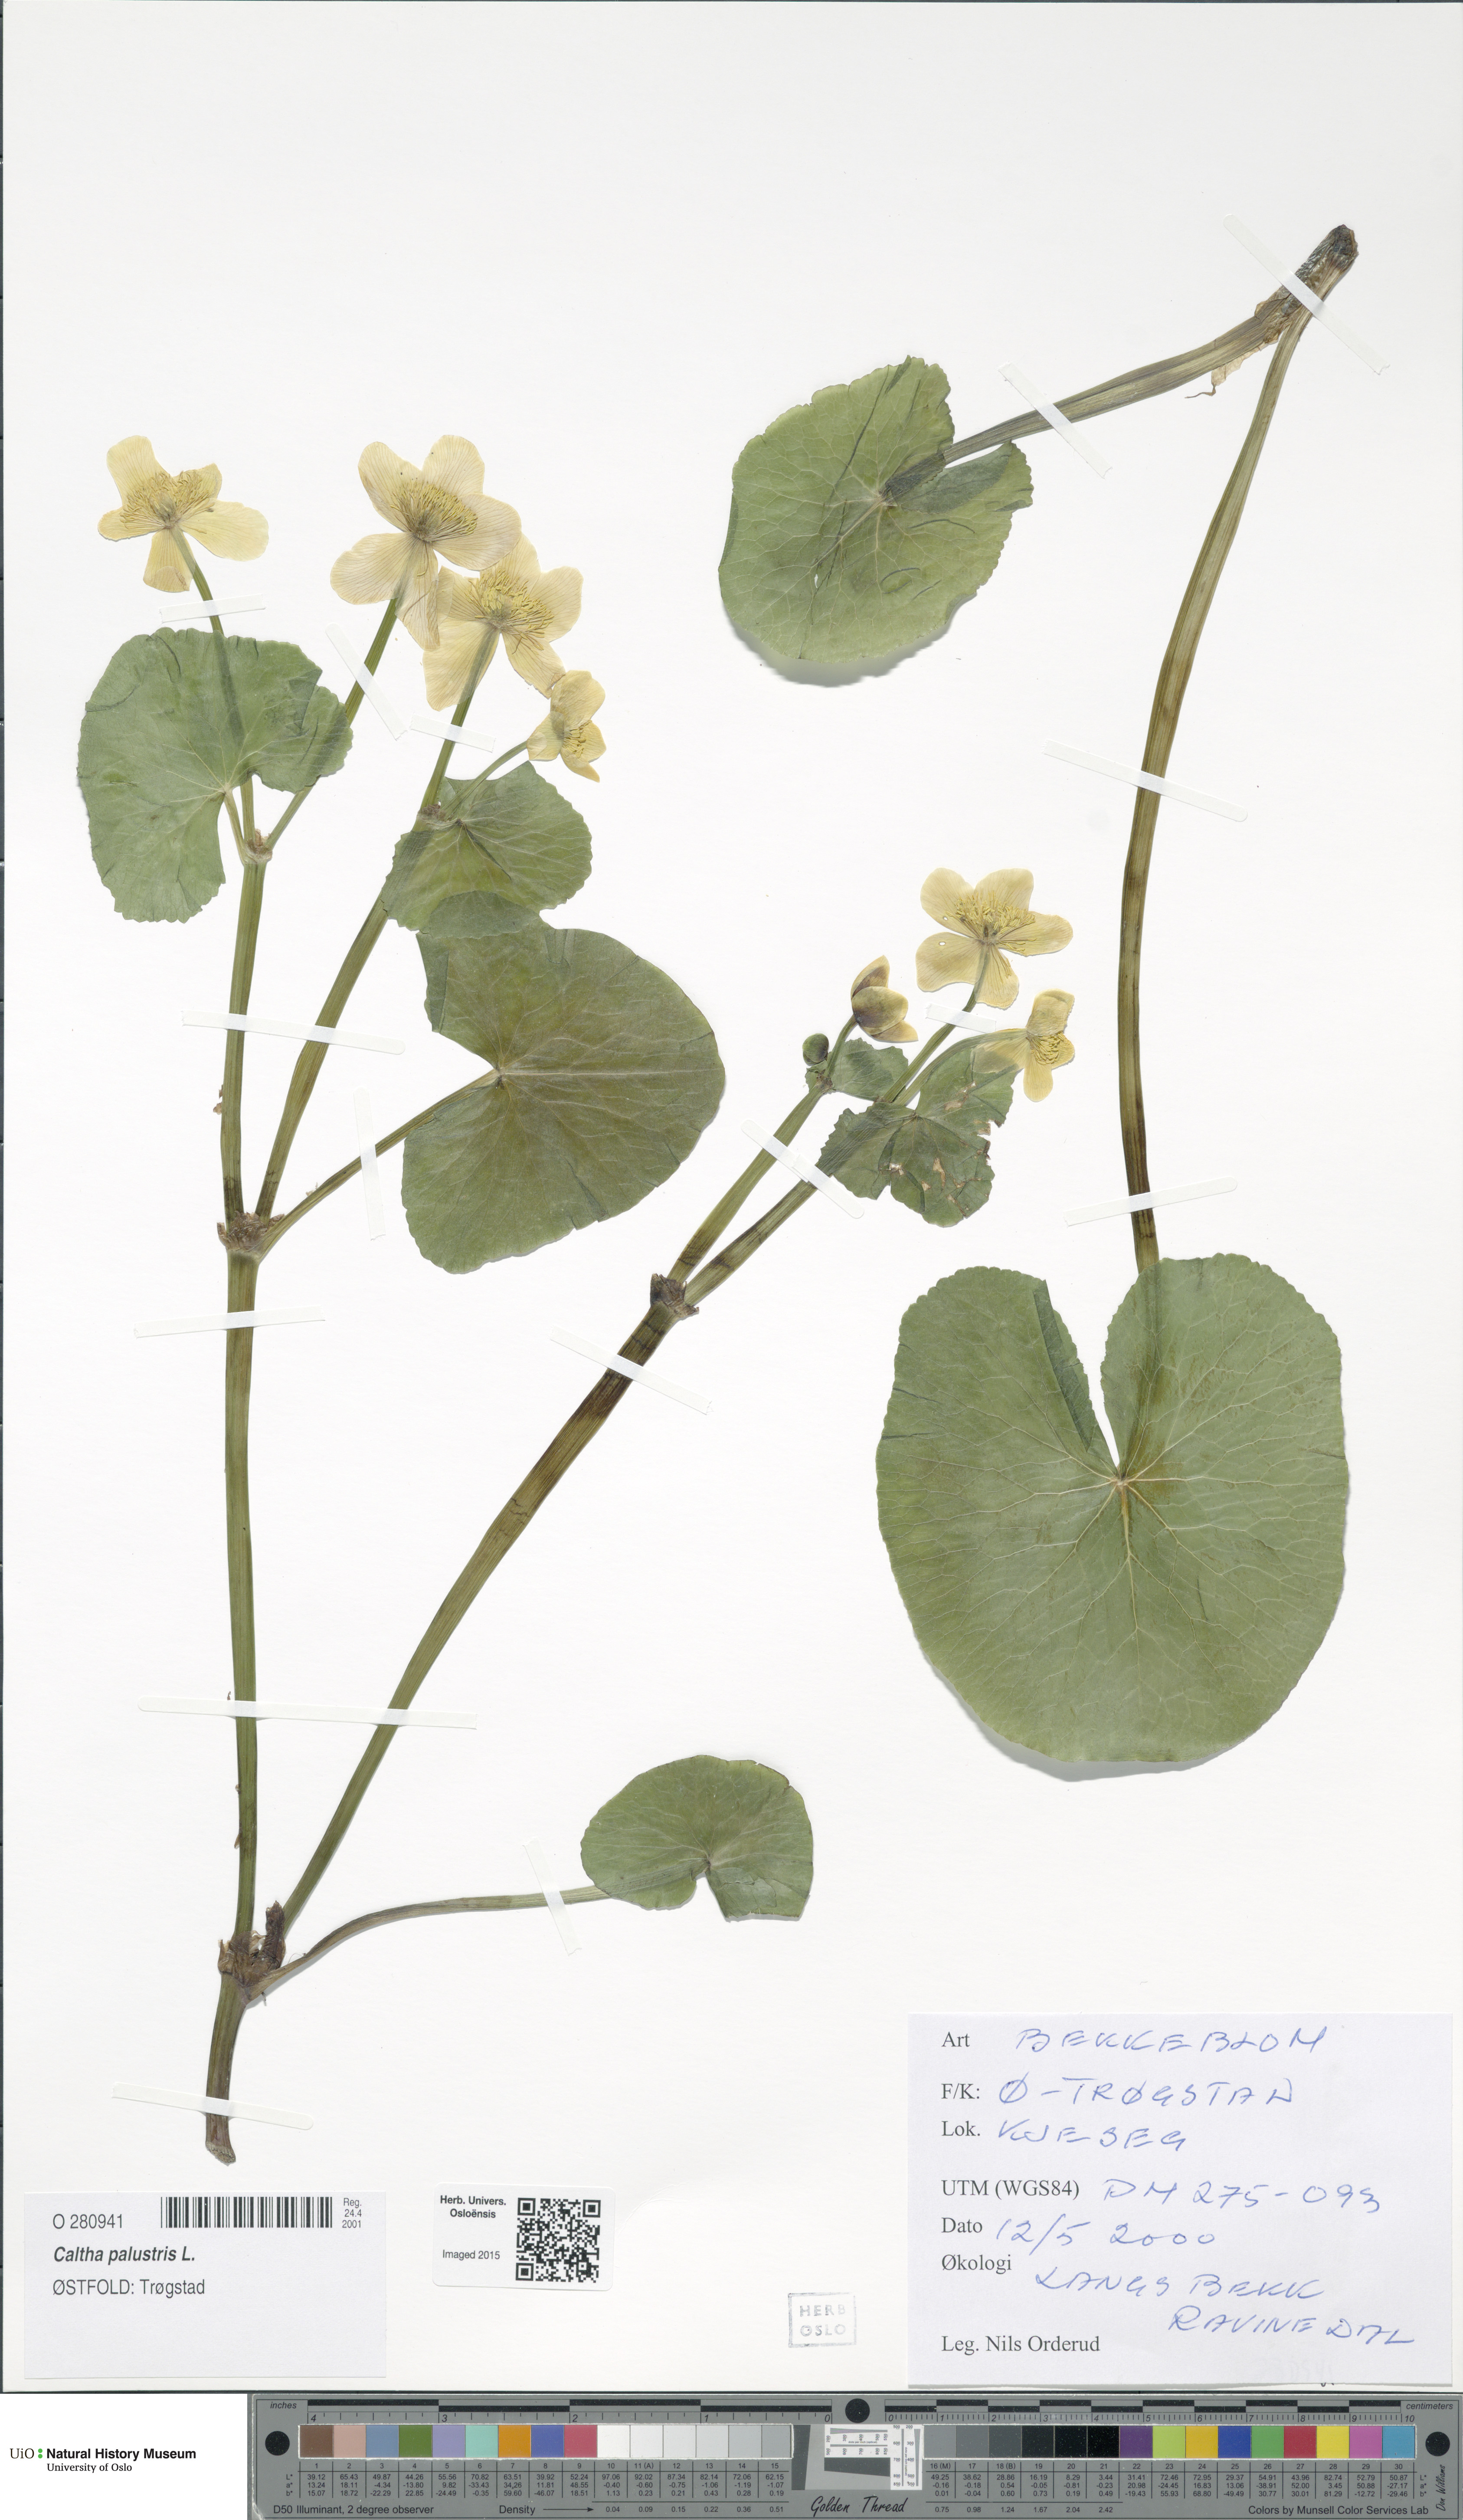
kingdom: Plantae
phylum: Tracheophyta
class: Magnoliopsida
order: Ranunculales
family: Ranunculaceae
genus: Caltha
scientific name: Caltha palustris
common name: Marsh marigold
